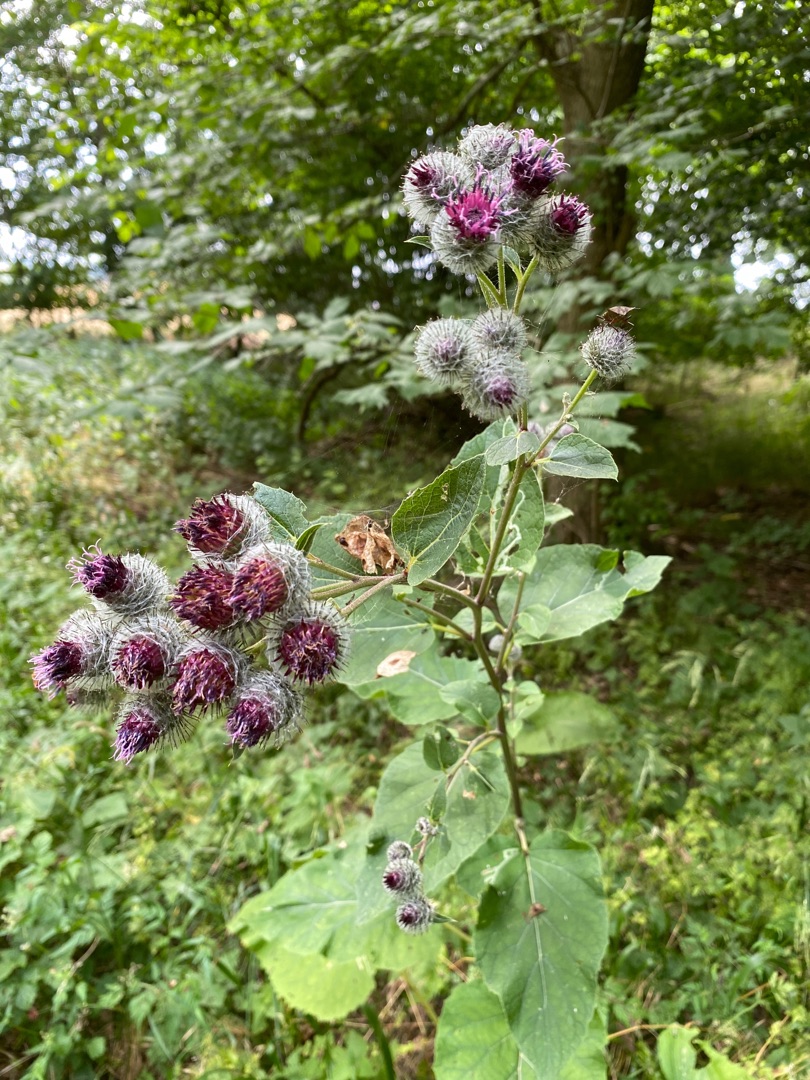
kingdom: Plantae
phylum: Tracheophyta
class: Magnoliopsida
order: Asterales
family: Asteraceae
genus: Arctium
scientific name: Arctium tomentosum
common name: Filtet burre
